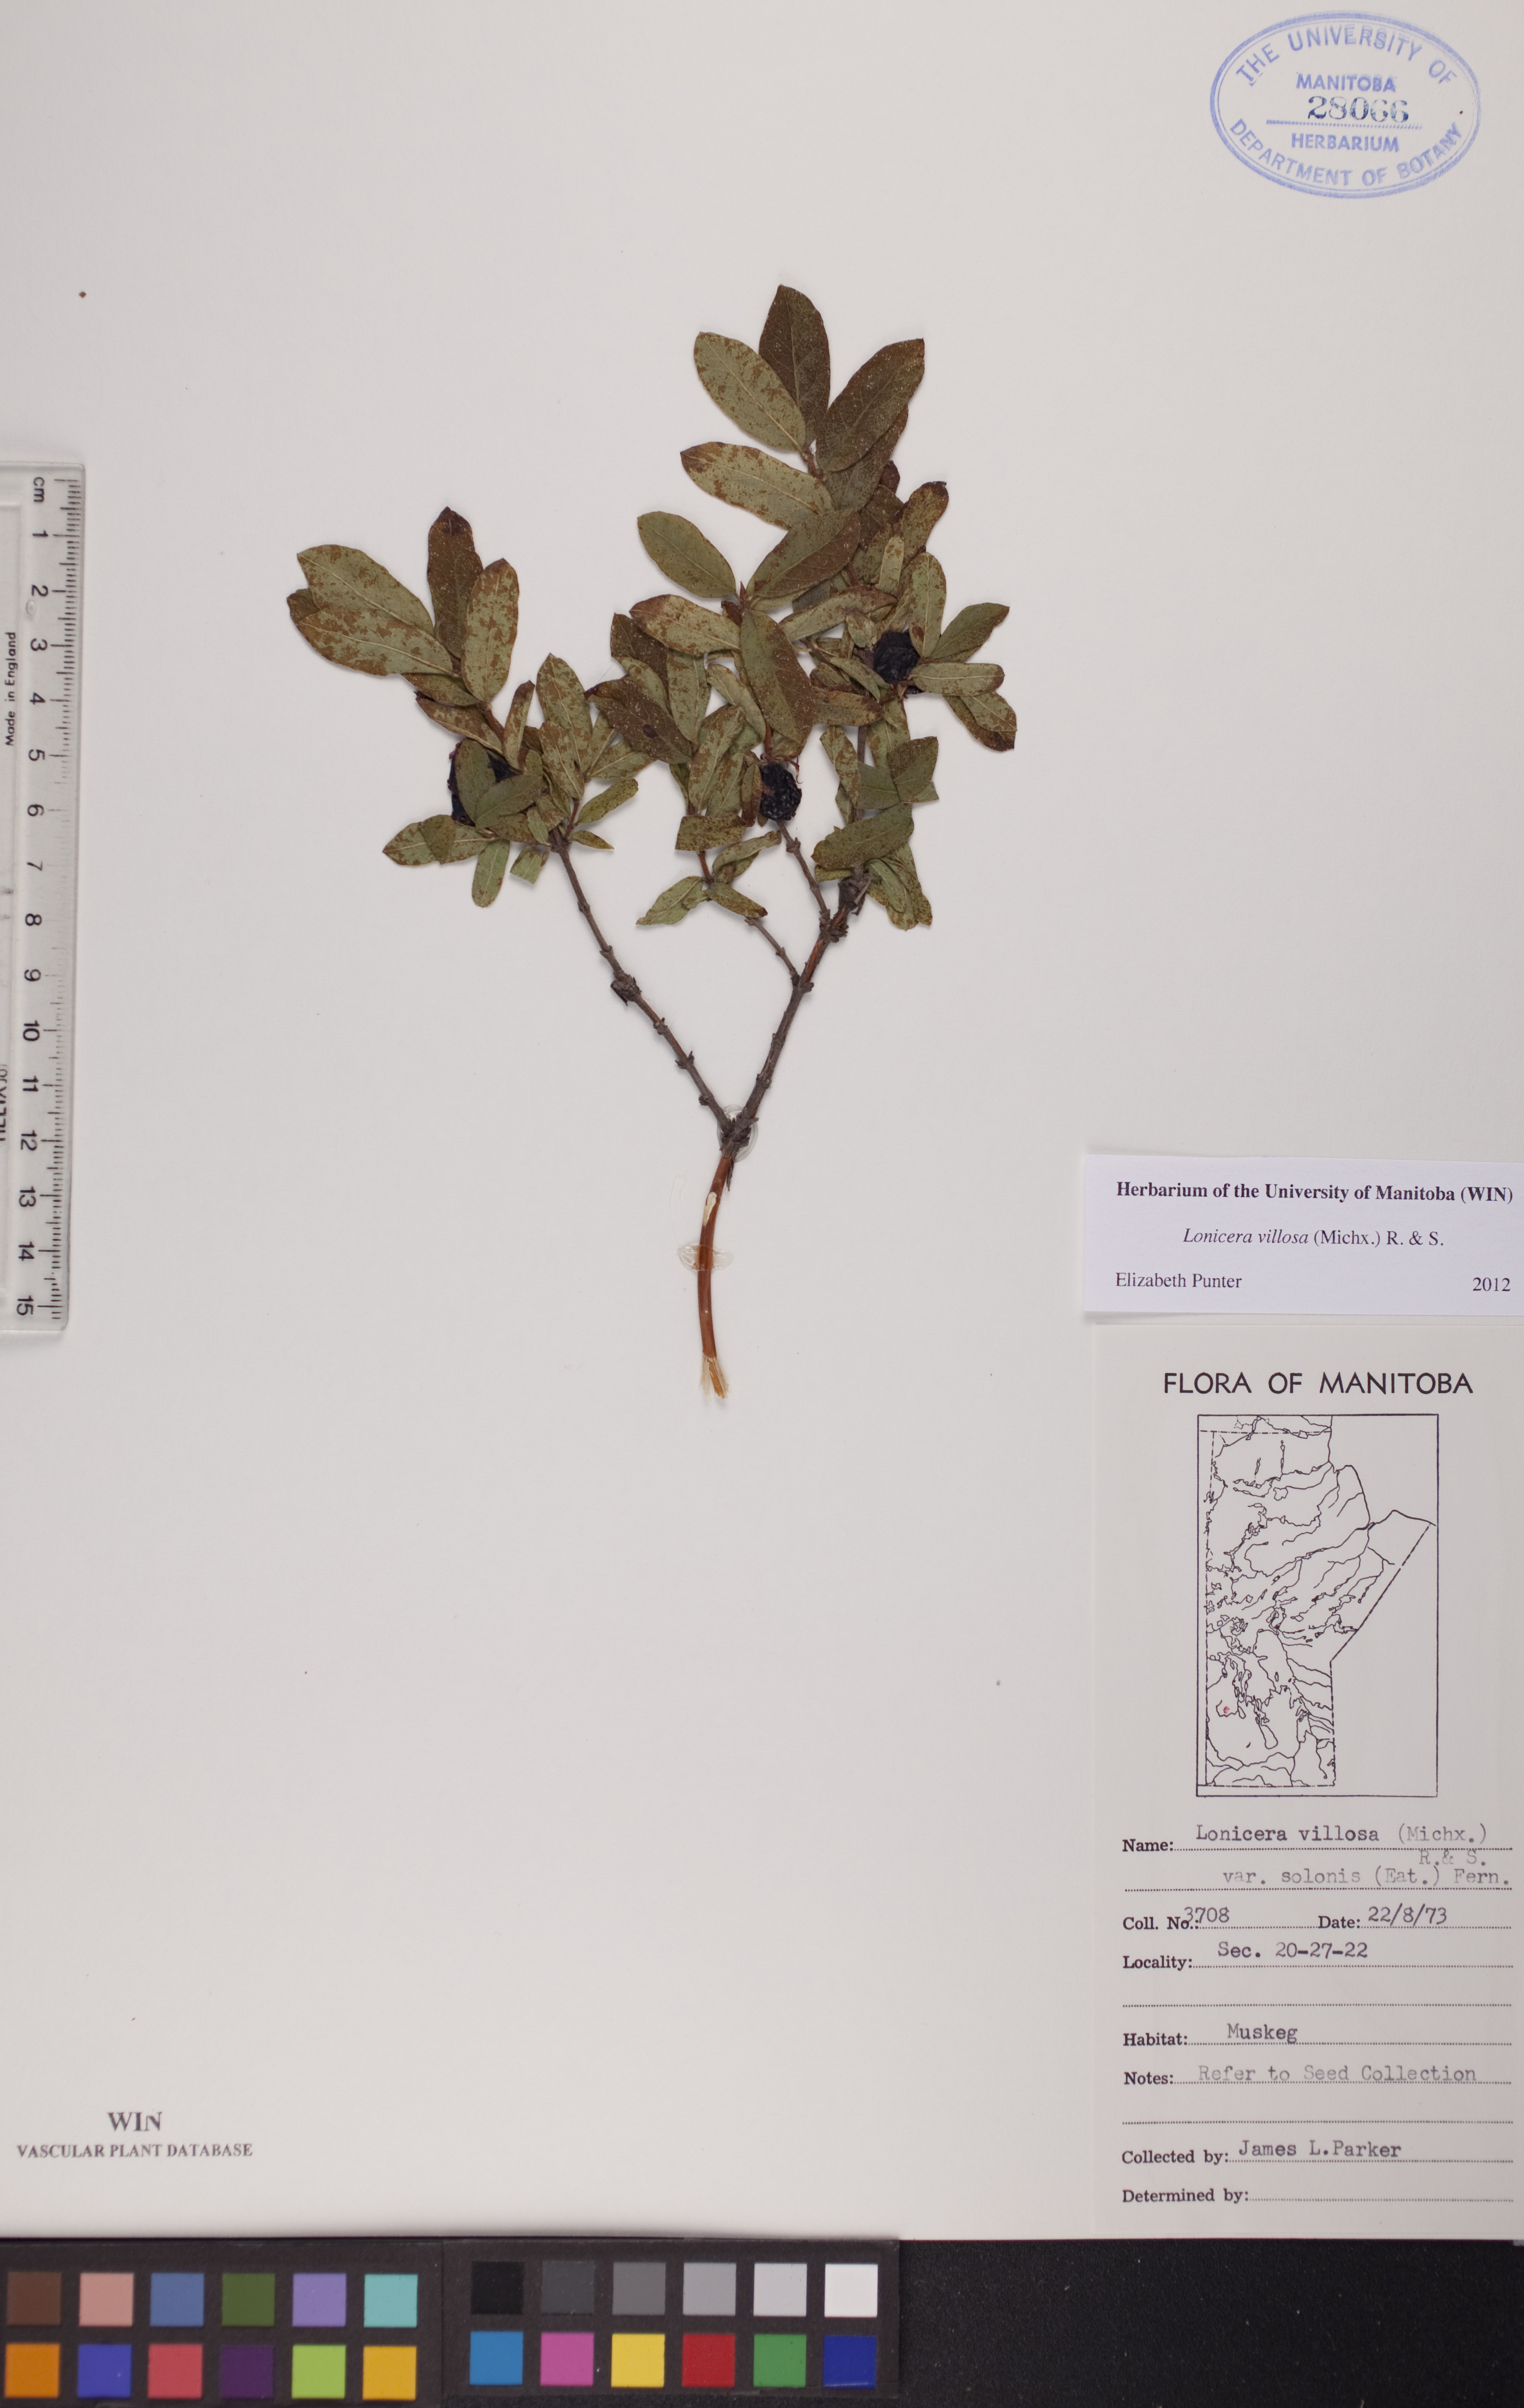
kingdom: Plantae
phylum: Tracheophyta
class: Magnoliopsida
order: Dipsacales
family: Caprifoliaceae
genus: Lonicera
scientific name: Lonicera villosa
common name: Mountain fly-honeysuckle
